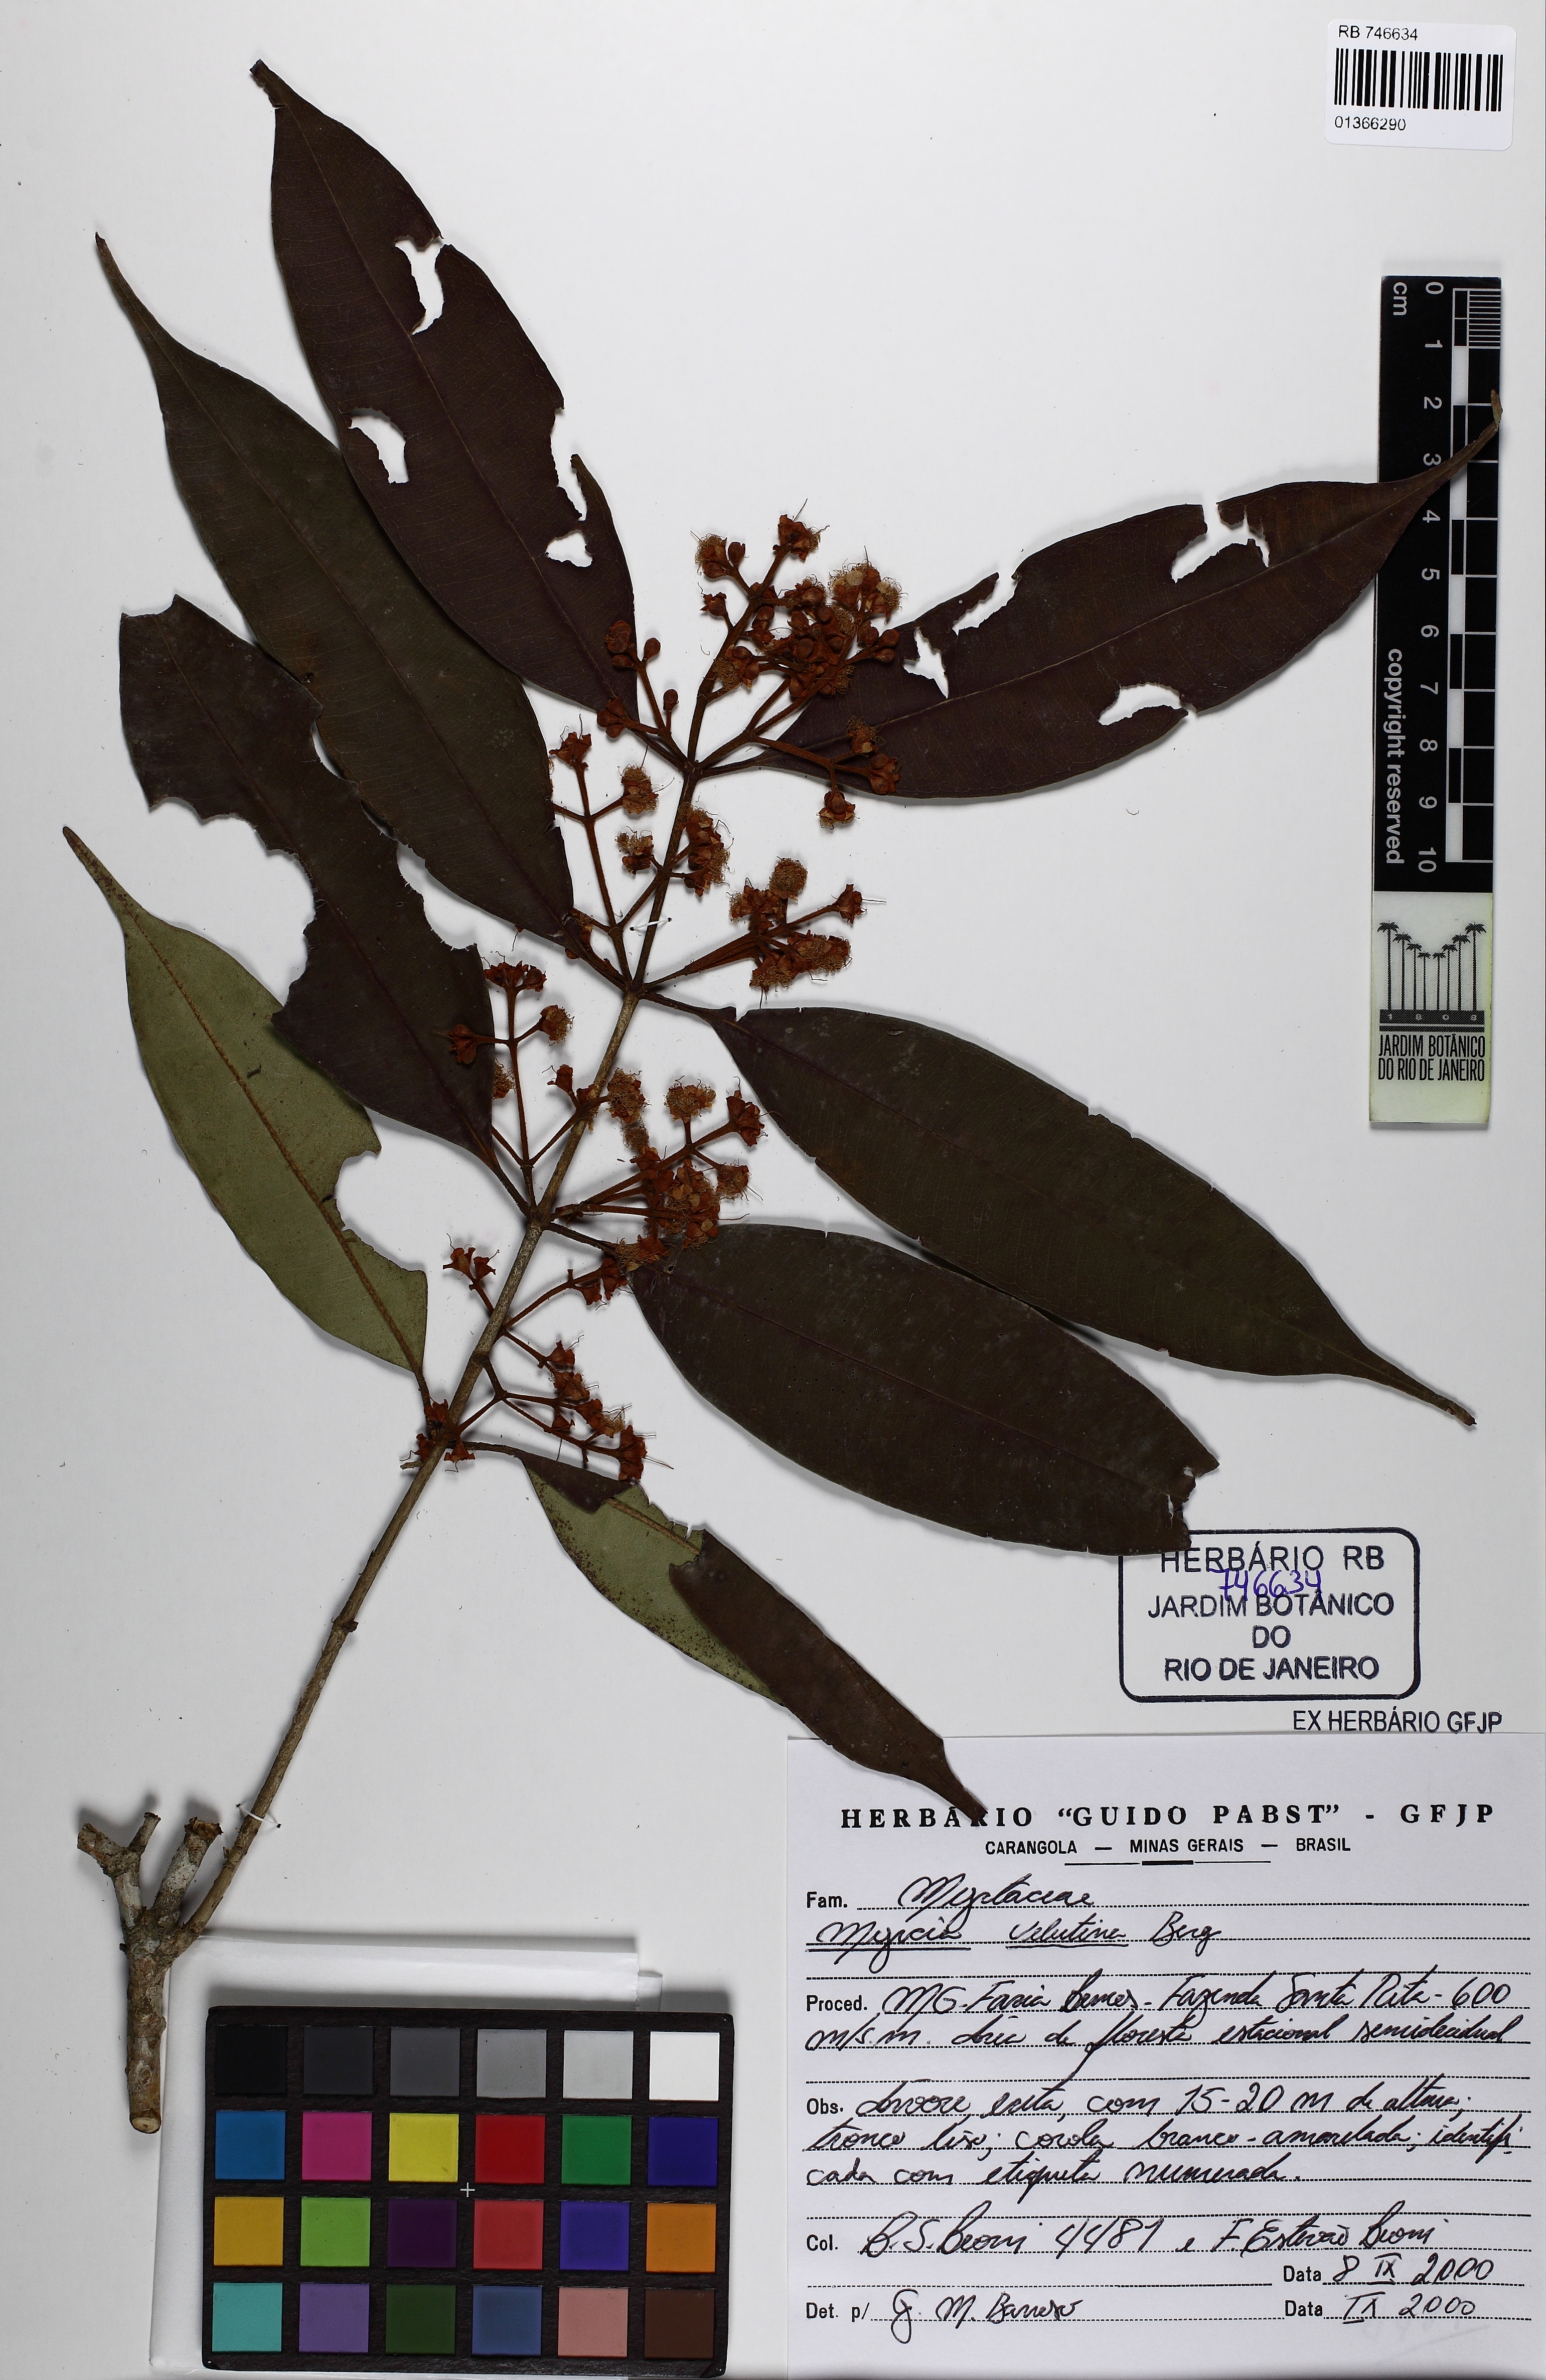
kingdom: Plantae
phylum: Tracheophyta
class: Magnoliopsida
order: Myrtales
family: Myrtaceae
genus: Myrcia
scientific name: Myrcia splendens
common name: Surinam cherry
